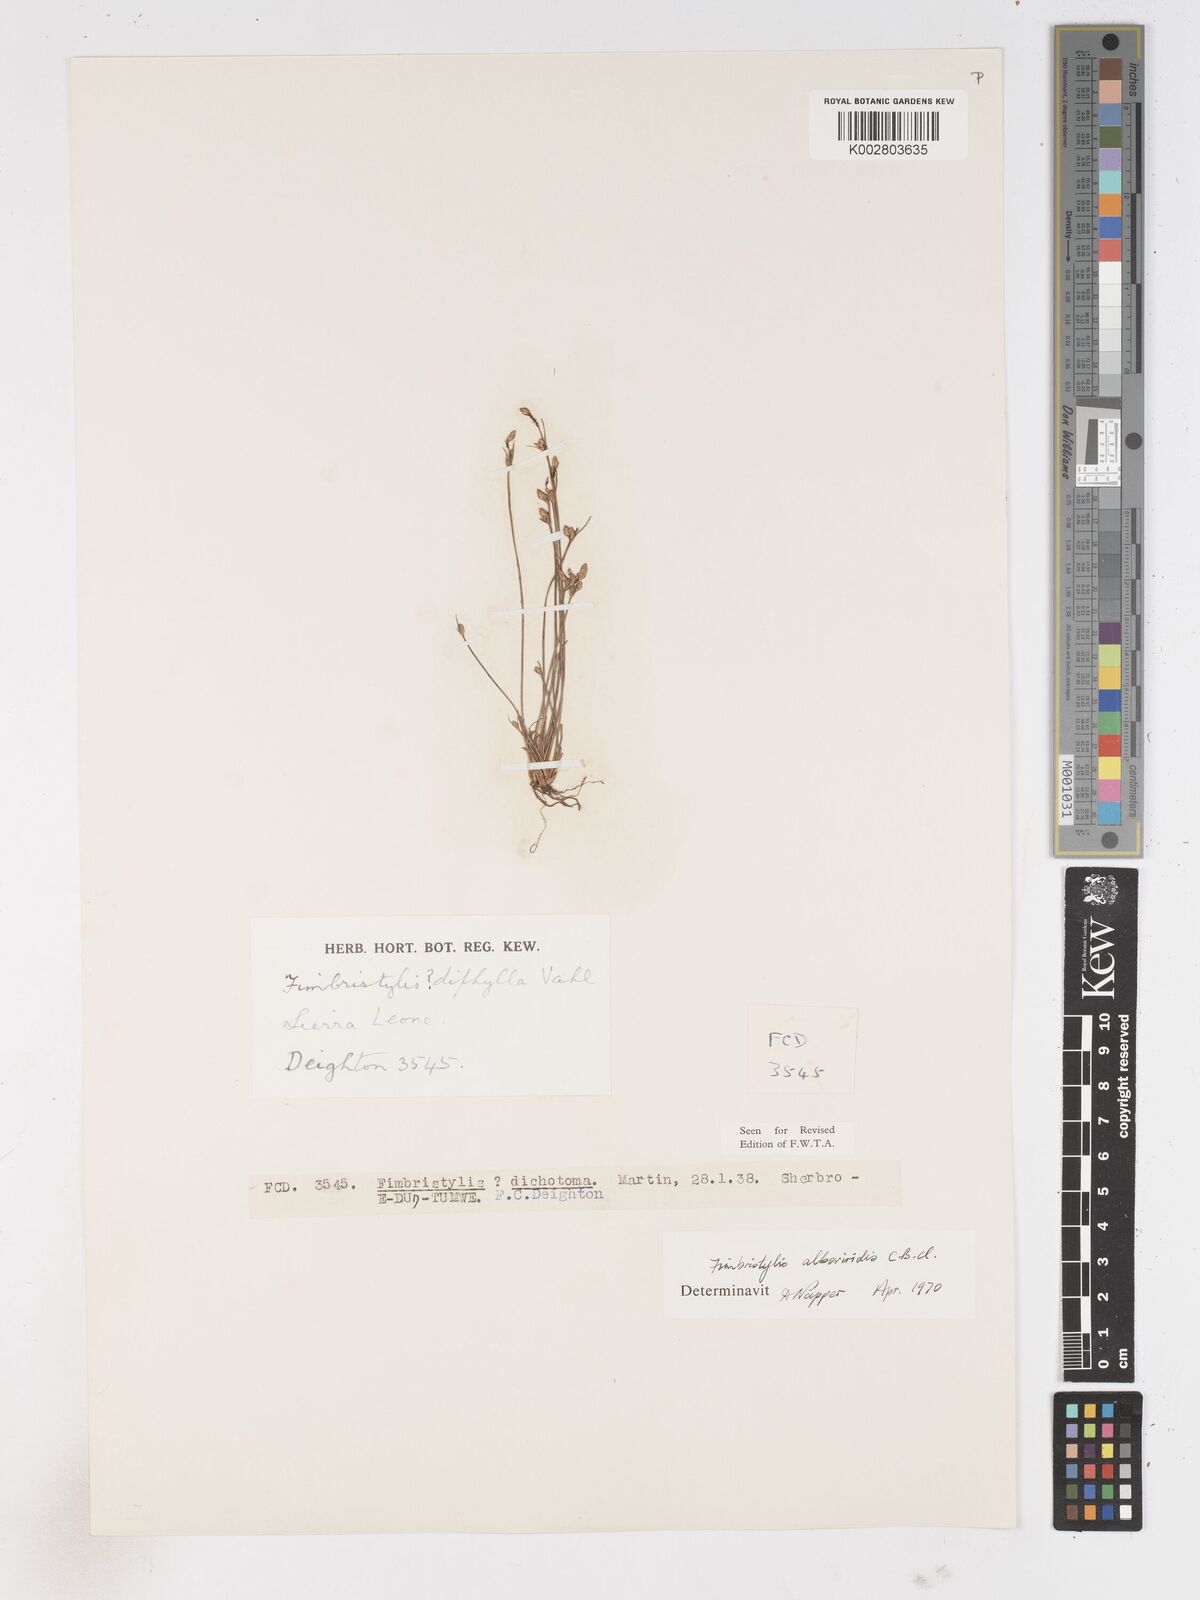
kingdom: Plantae
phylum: Tracheophyta
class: Liliopsida
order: Poales
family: Cyperaceae
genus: Fimbristylis
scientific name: Fimbristylis alboviridis
